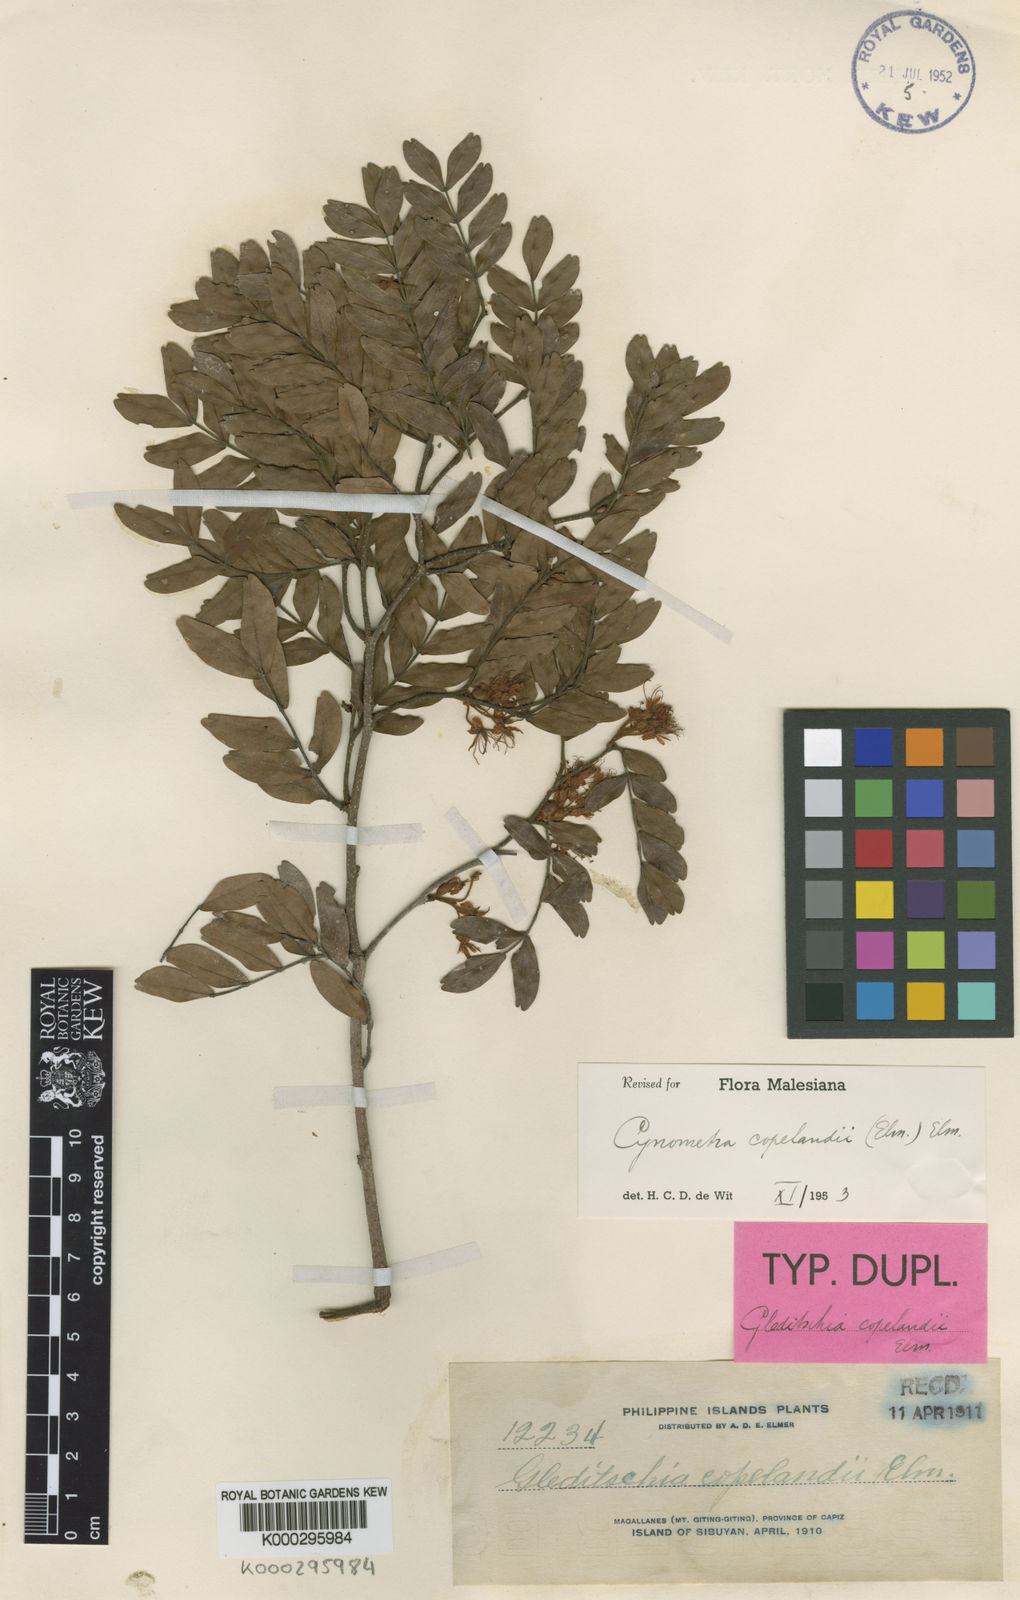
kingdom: Plantae
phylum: Tracheophyta
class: Magnoliopsida
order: Fabales
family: Fabaceae
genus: Cynometra
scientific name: Cynometra copelandii
